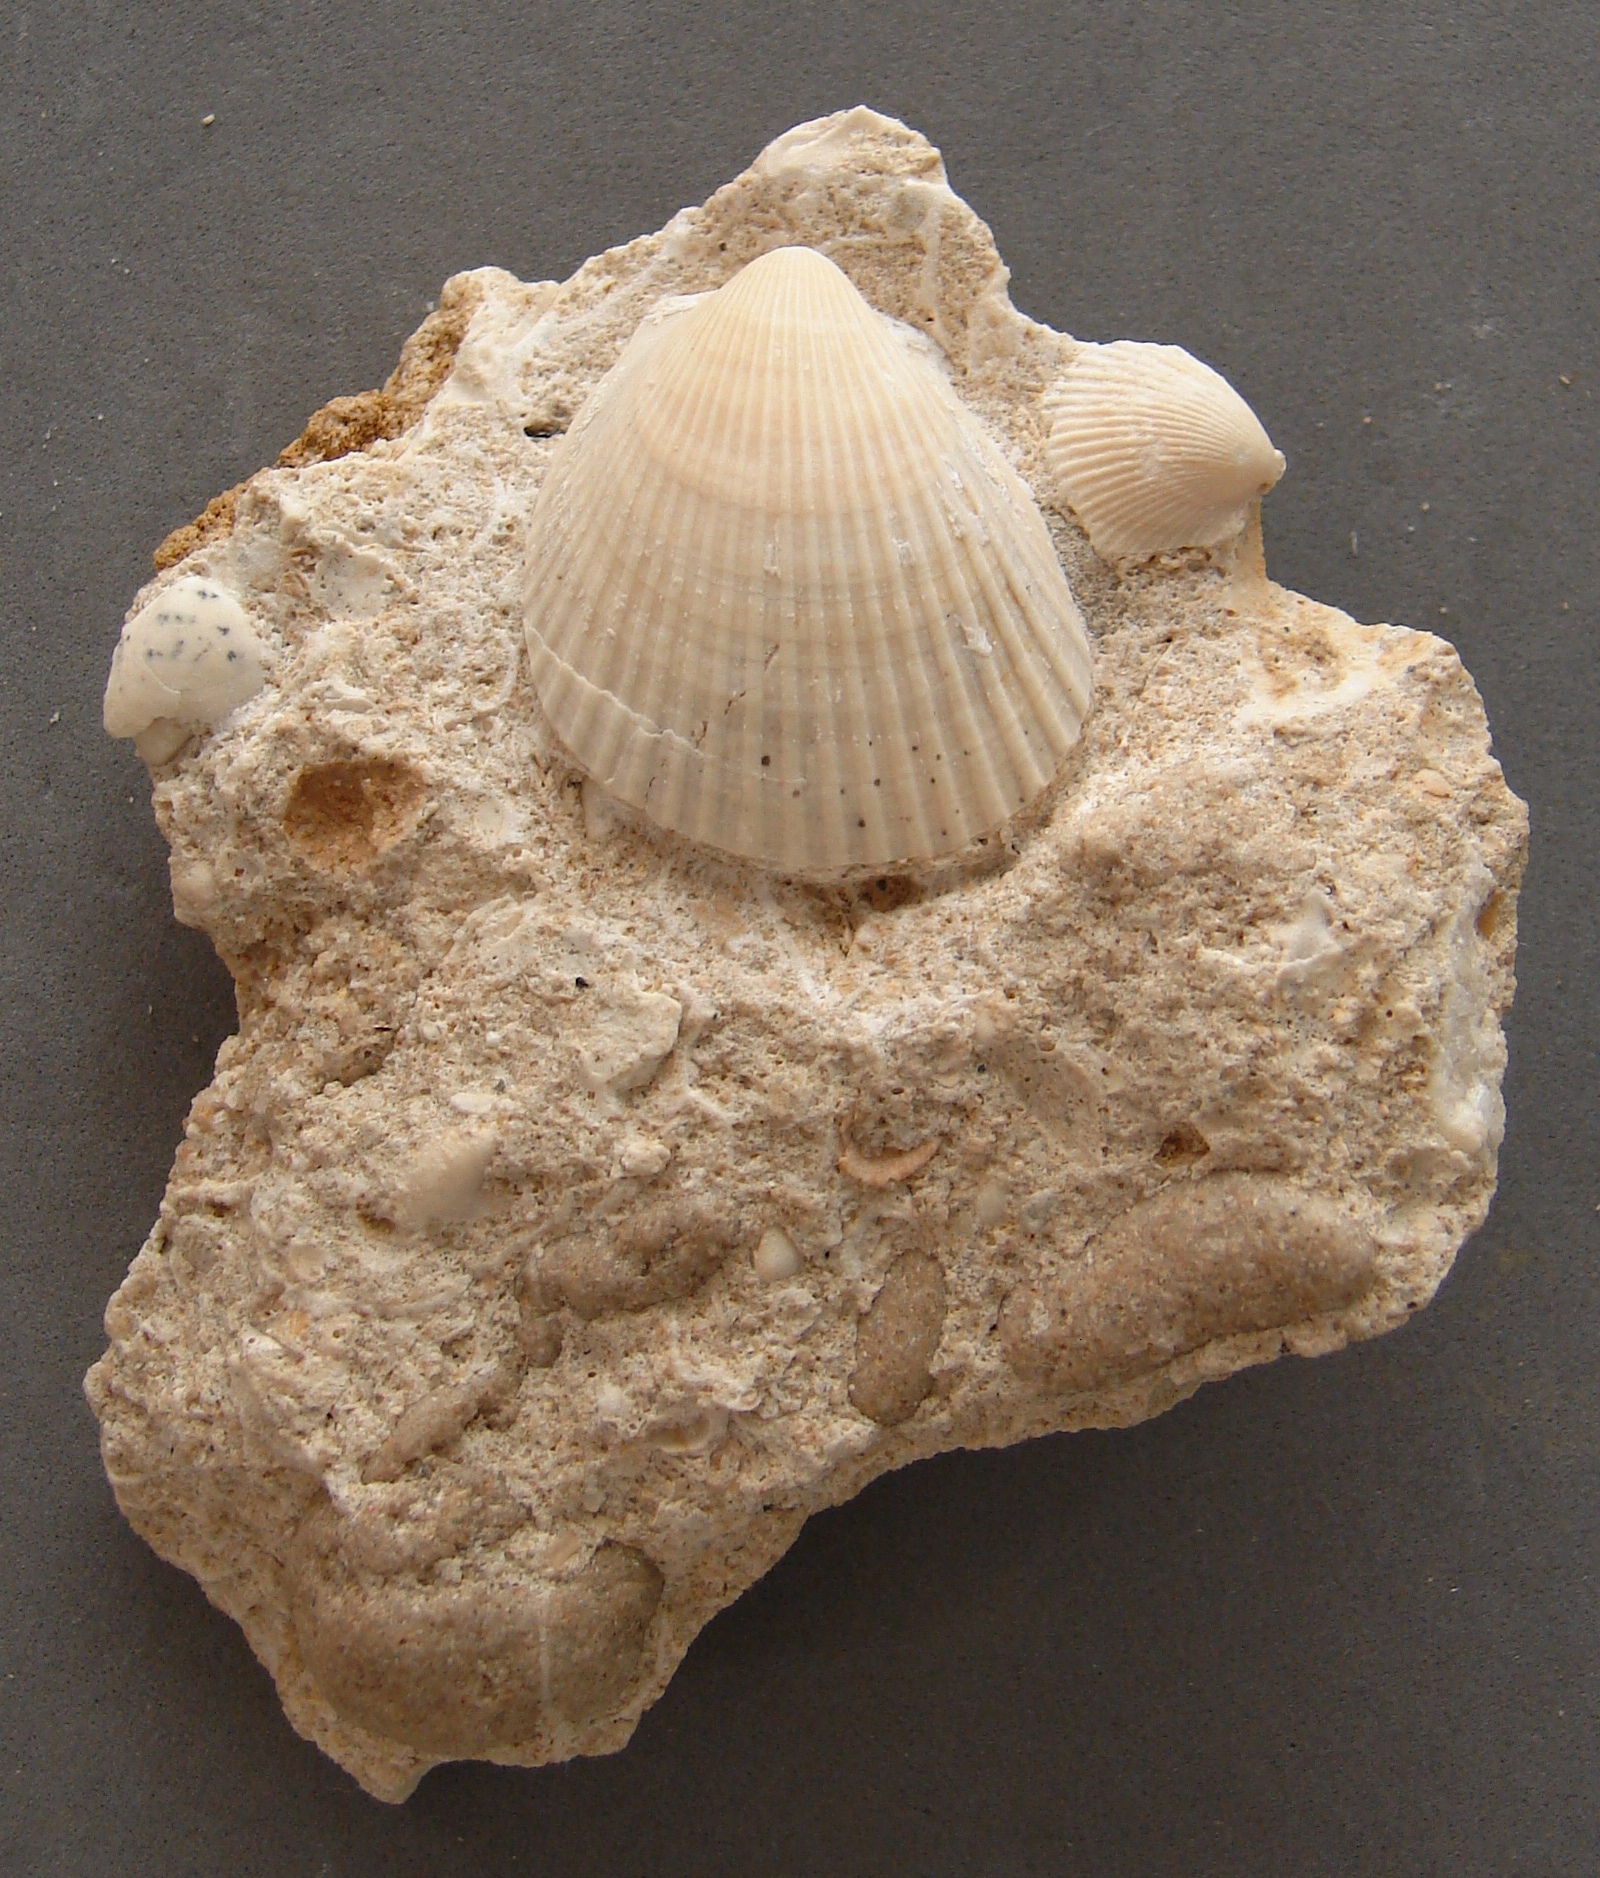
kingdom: Animalia
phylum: Mollusca
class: Bivalvia
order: Limida
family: Limidae
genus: Pseudolimea
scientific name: Pseudolimea Lima hettangiensis
